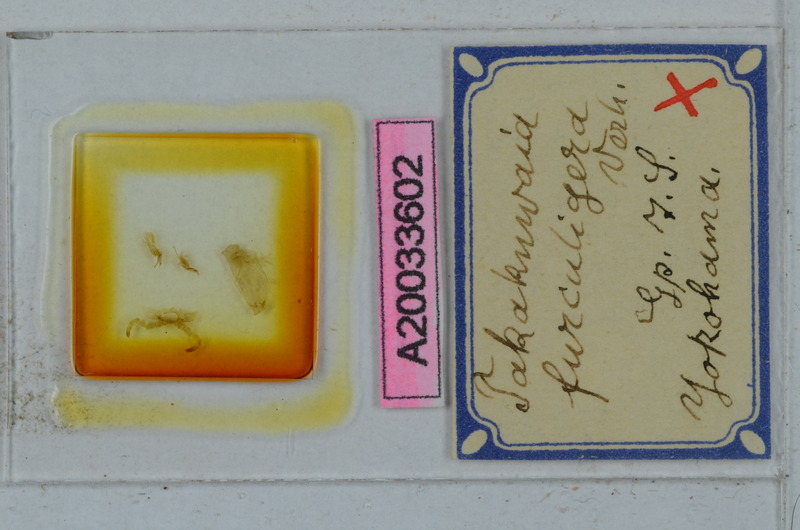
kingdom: Animalia
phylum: Arthropoda
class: Diplopoda
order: Polydesmida
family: Xystodesmidae
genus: Xystodesmus
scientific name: Xystodesmus martensii
